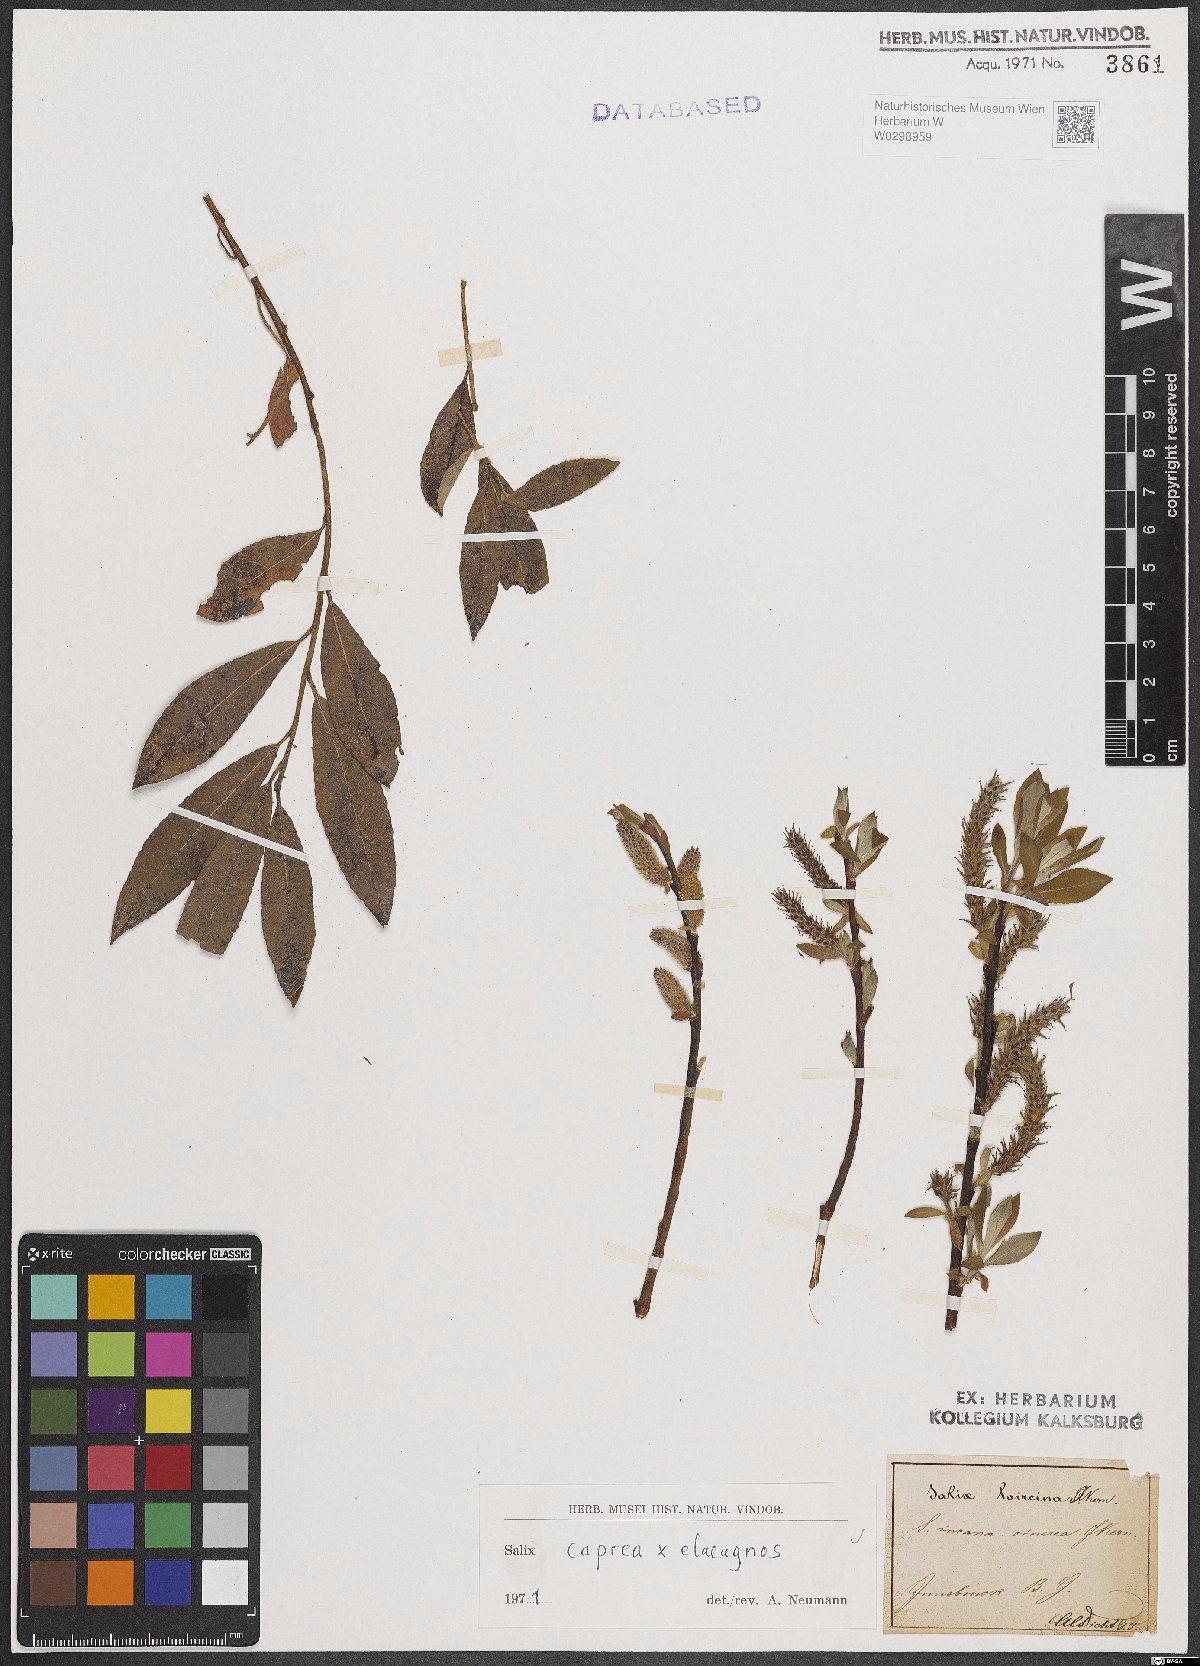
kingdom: Plantae
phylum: Tracheophyta
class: Magnoliopsida
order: Malpighiales
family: Salicaceae
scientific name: Salicaceae
